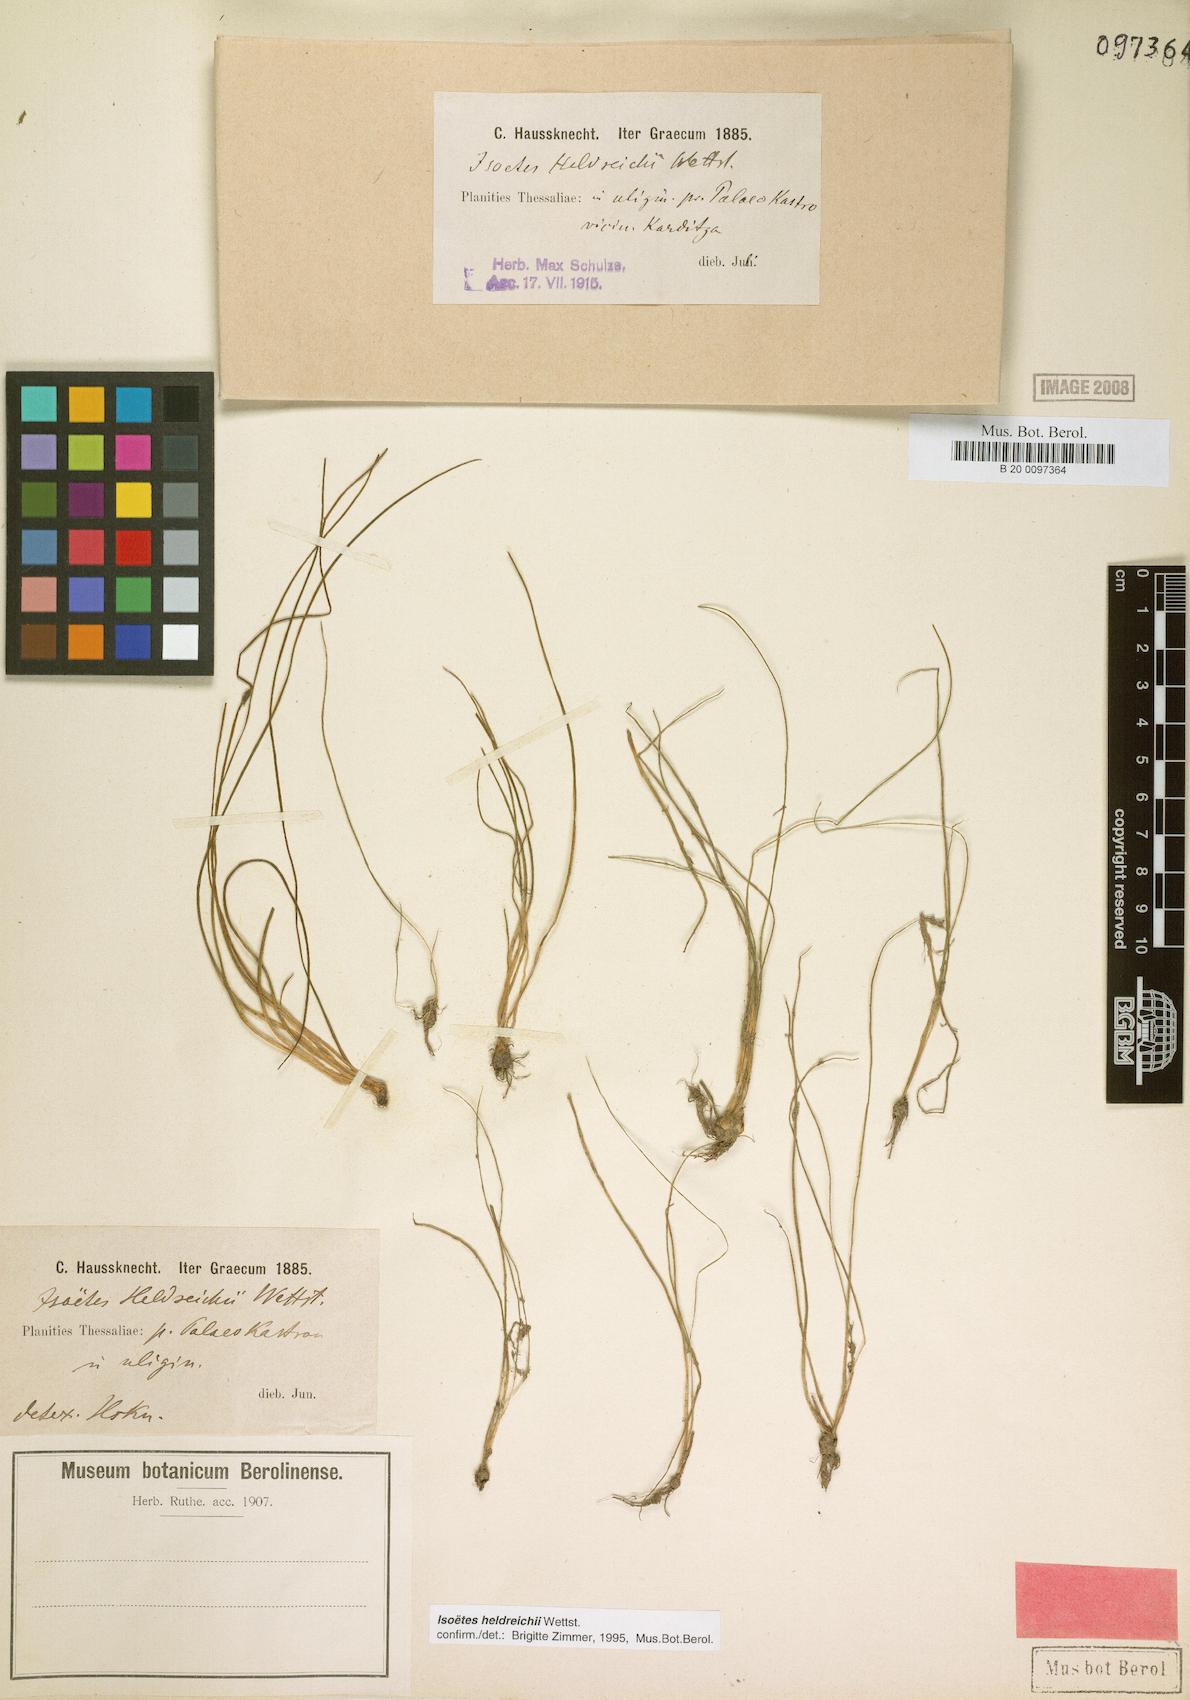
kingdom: Plantae
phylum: Tracheophyta
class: Lycopodiopsida
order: Isoetales
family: Isoetaceae
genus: Isoetes
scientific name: Isoetes heldreichii
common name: Pindus quillwort
